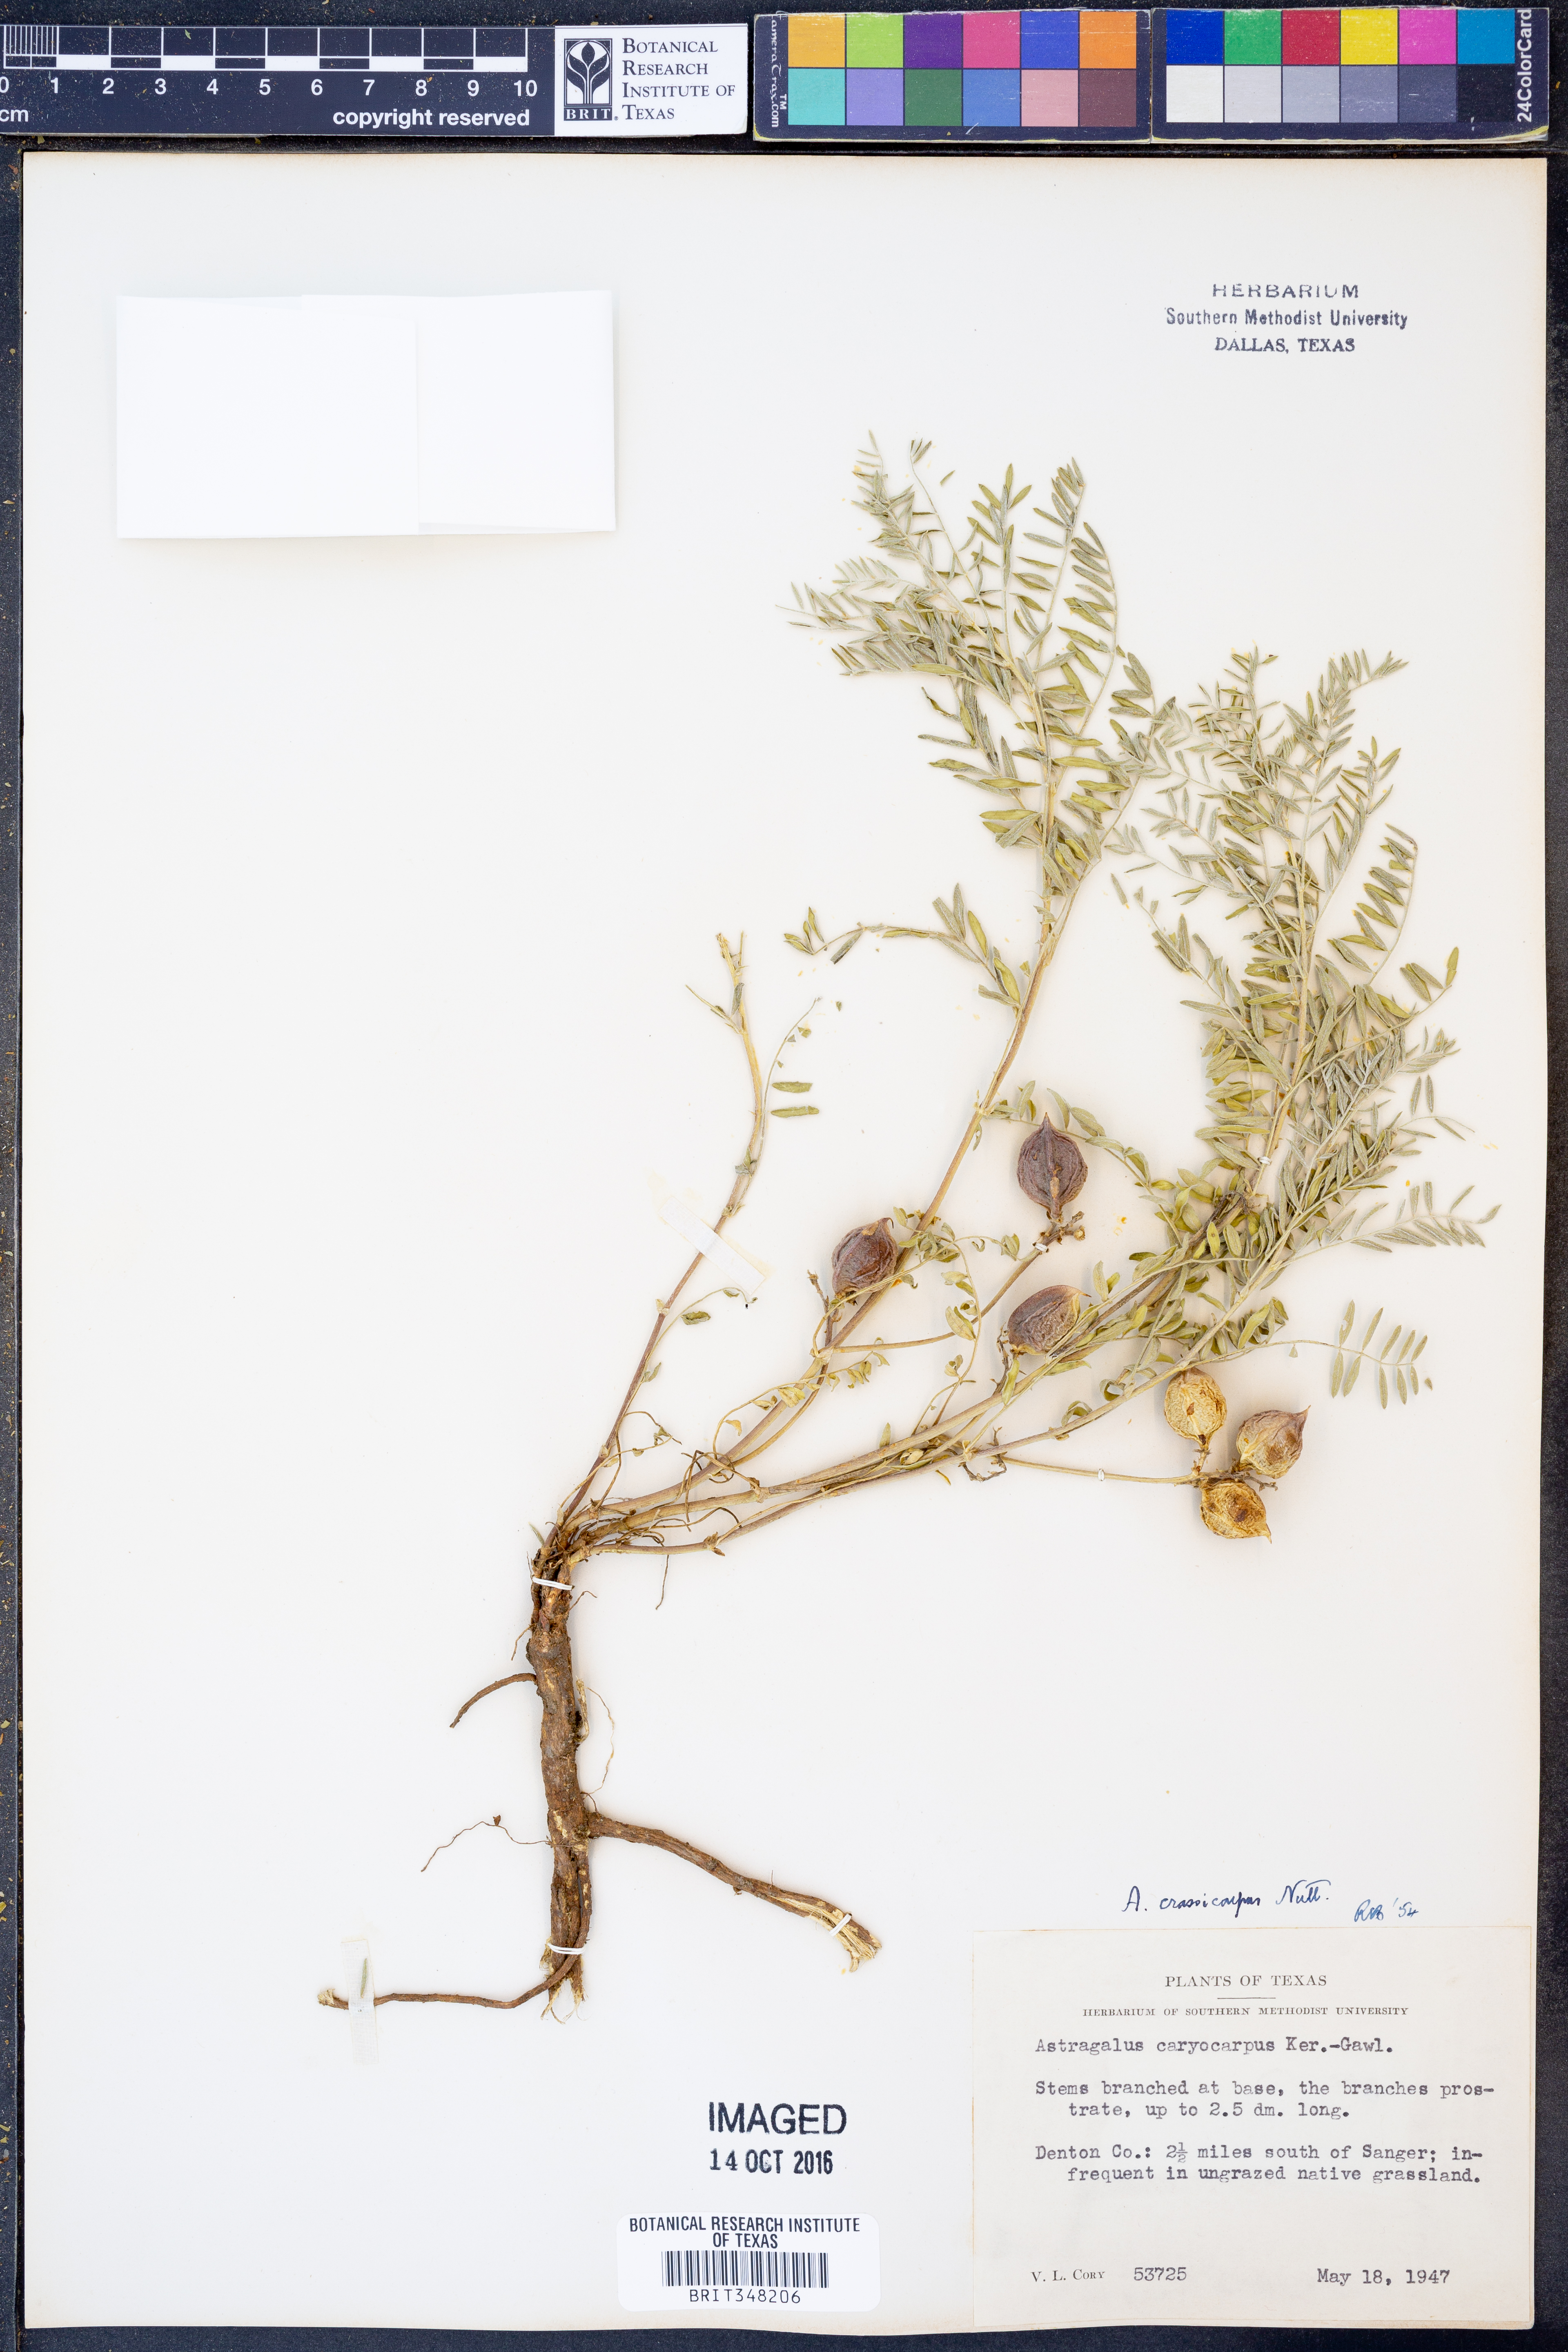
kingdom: Plantae
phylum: Tracheophyta
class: Magnoliopsida
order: Fabales
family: Fabaceae
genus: Astragalus
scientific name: Astragalus crassicarpus
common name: Ground-plum milk-vetch
